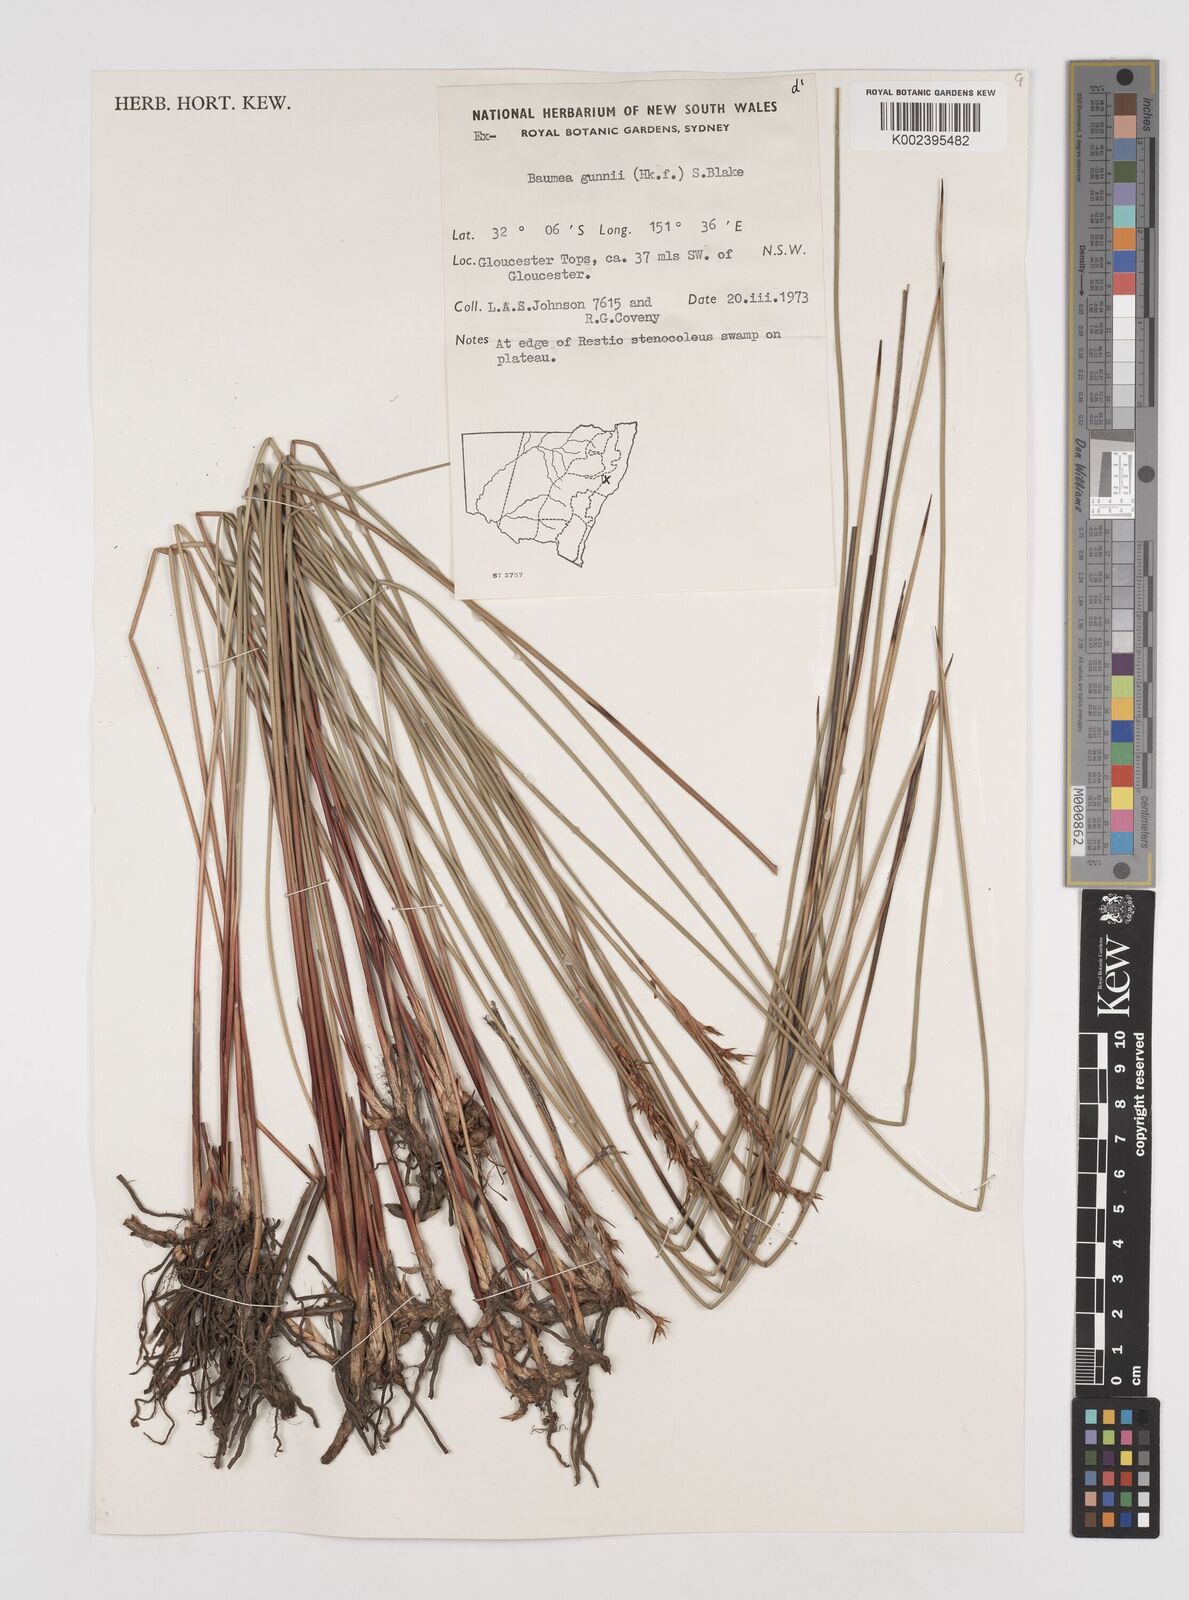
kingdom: Plantae
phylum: Tracheophyta
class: Liliopsida
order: Poales
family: Cyperaceae
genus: Machaerina
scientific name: Machaerina gunnii
